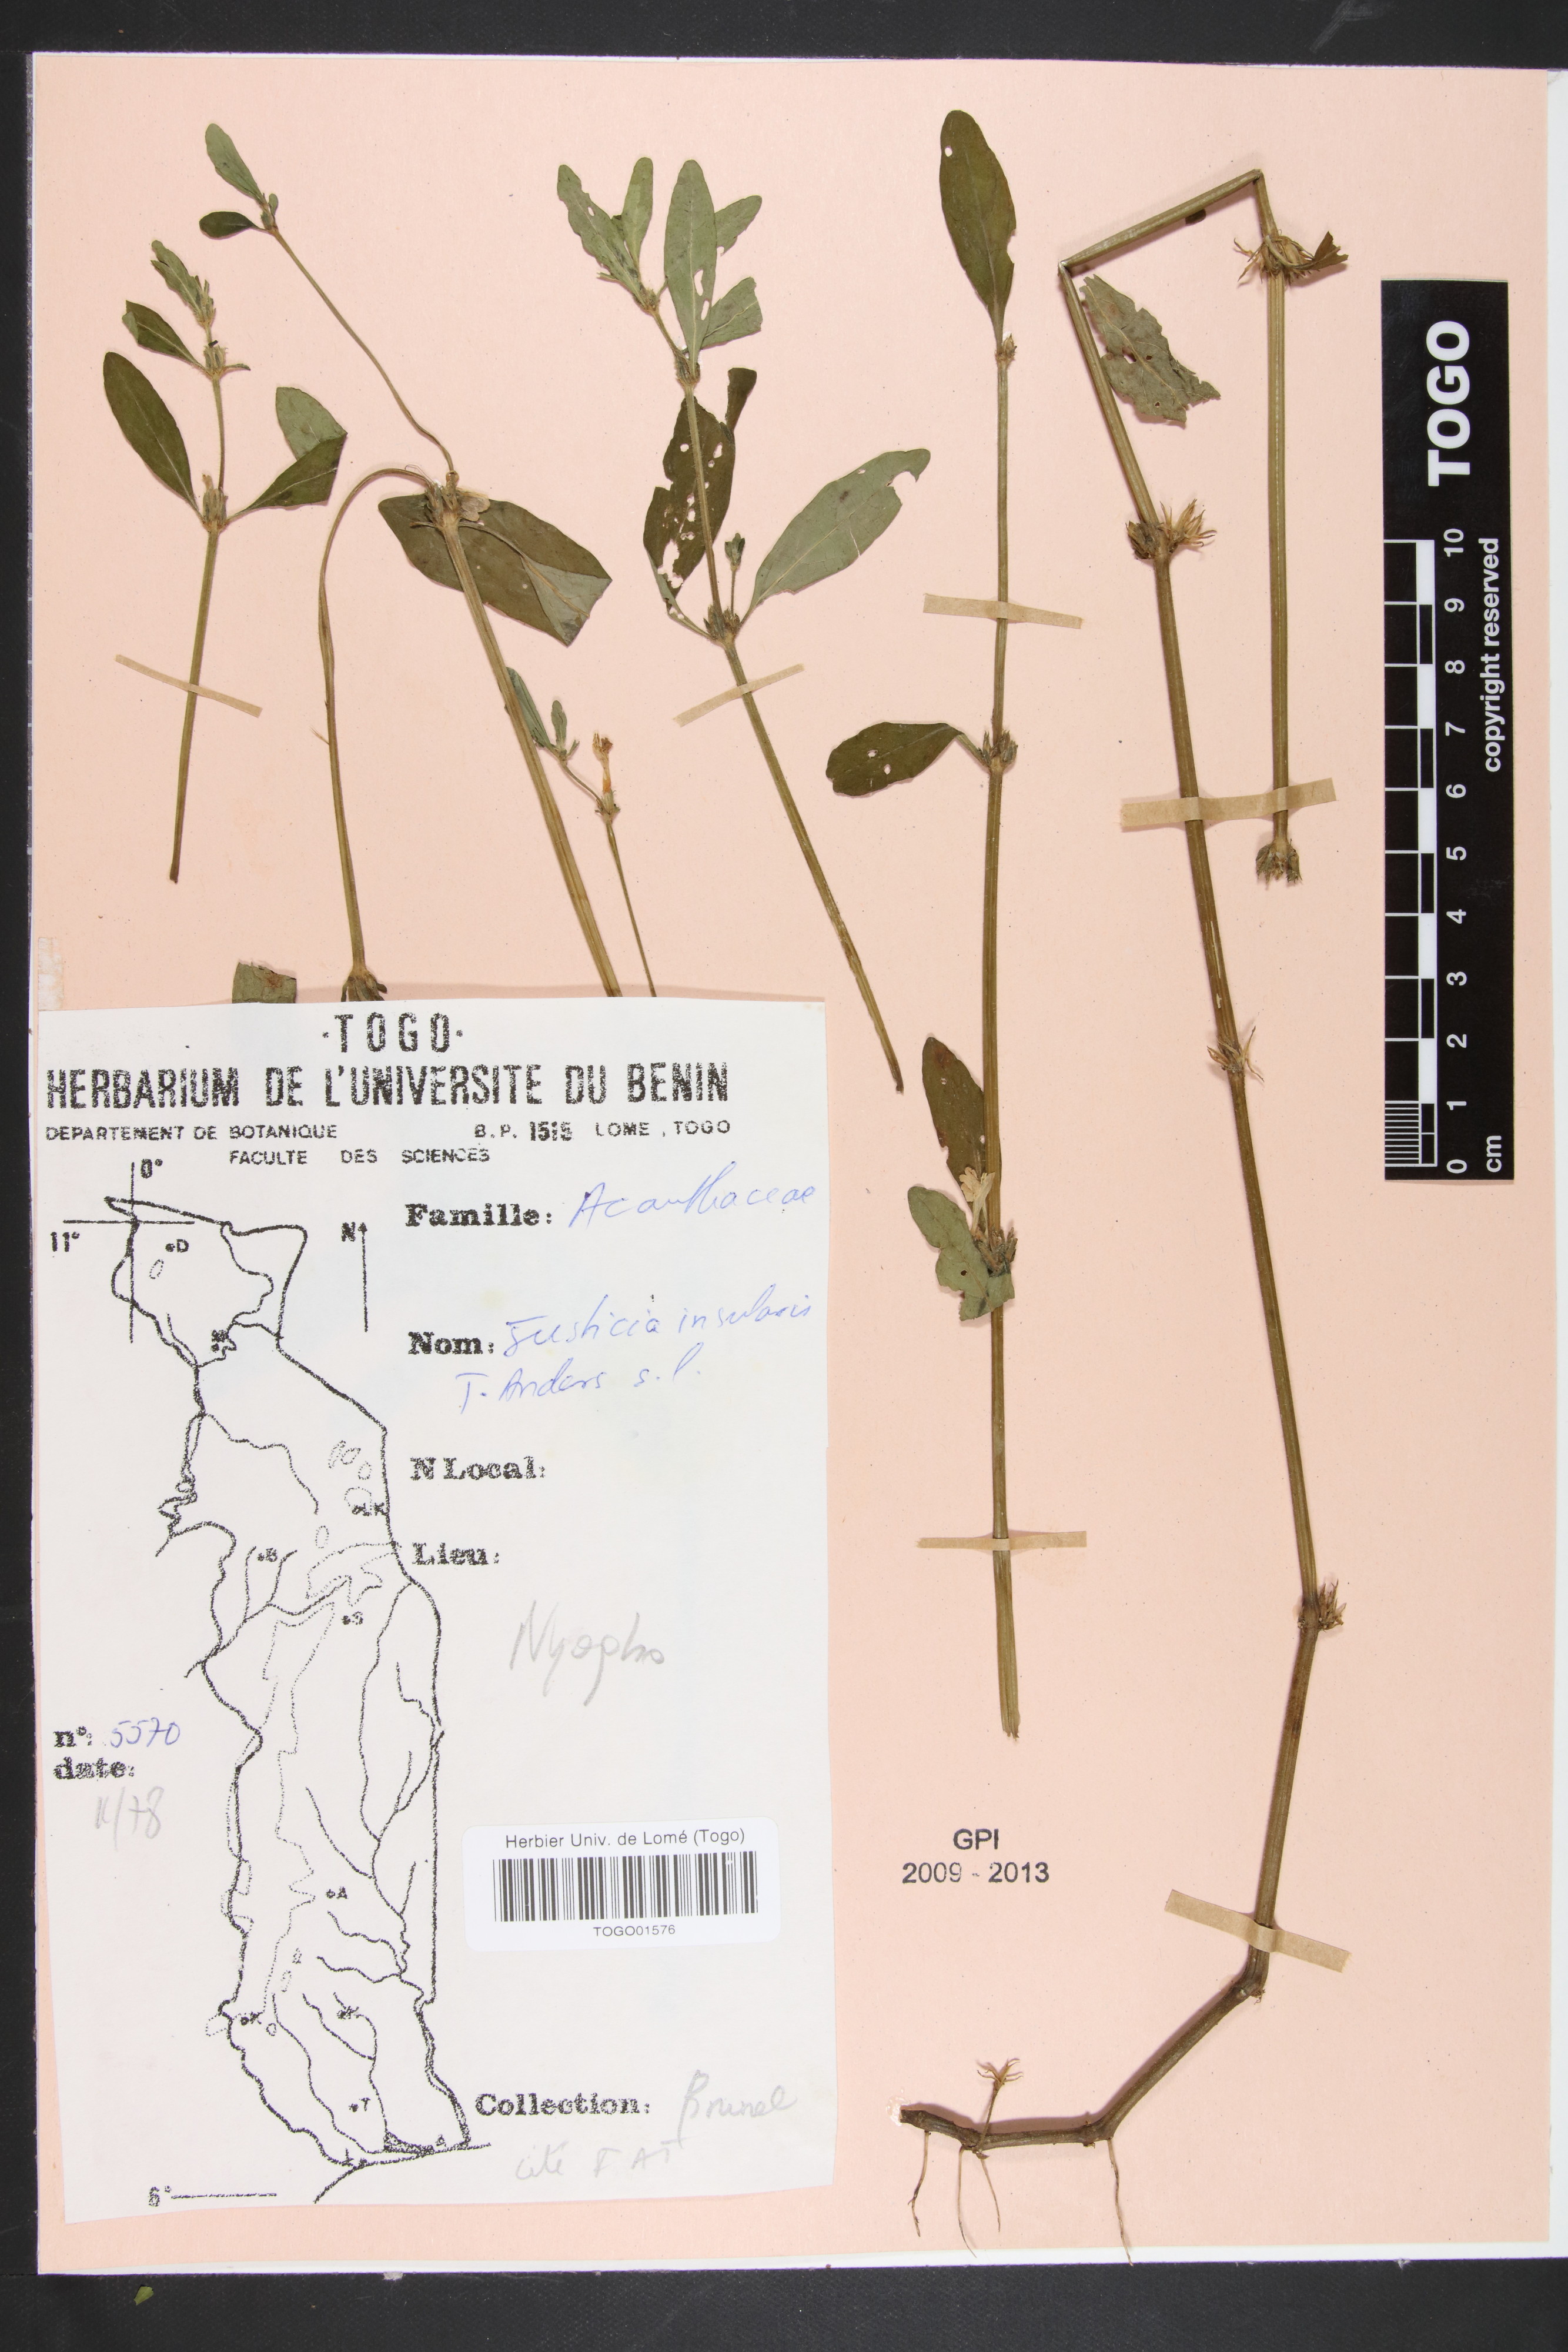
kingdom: Plantae
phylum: Tracheophyta
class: Magnoliopsida
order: Lamiales
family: Acanthaceae
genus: Justicia
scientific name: Justicia insularis
